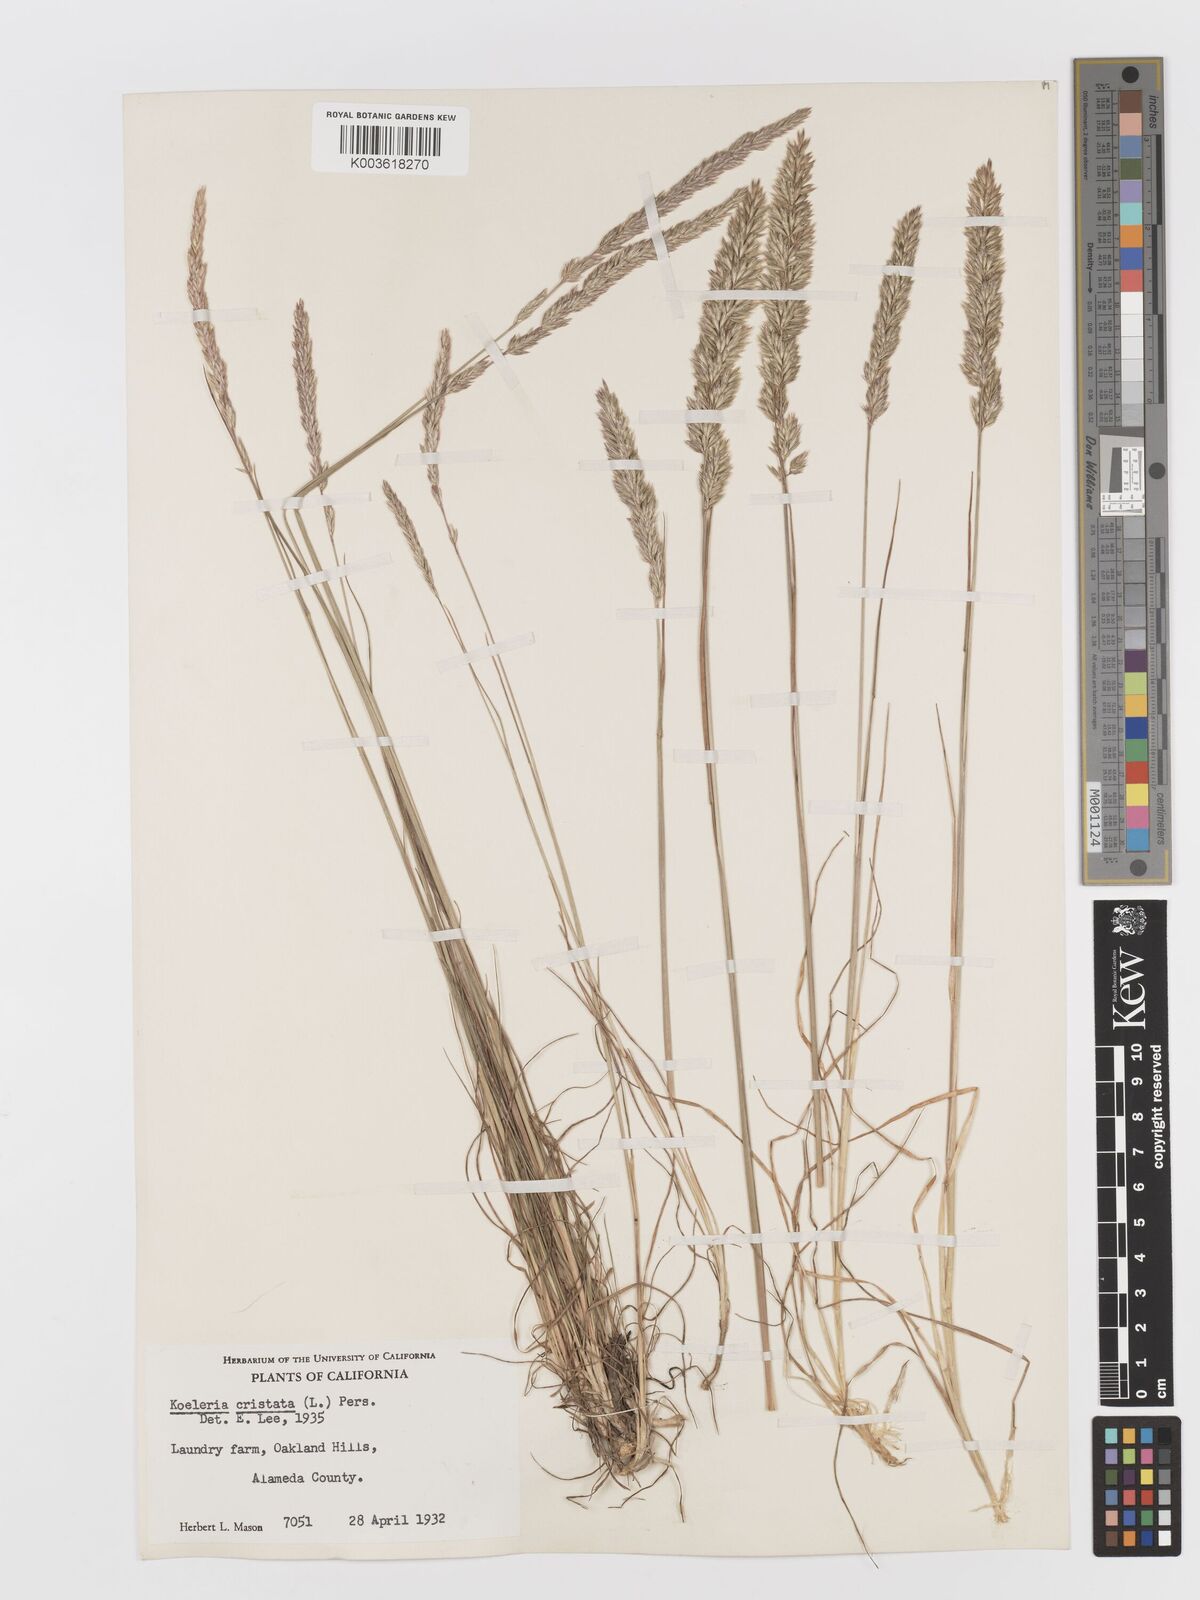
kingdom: Plantae
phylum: Tracheophyta
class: Liliopsida
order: Poales
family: Poaceae
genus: Koeleria
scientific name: Koeleria macrantha
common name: Crested hair-grass
